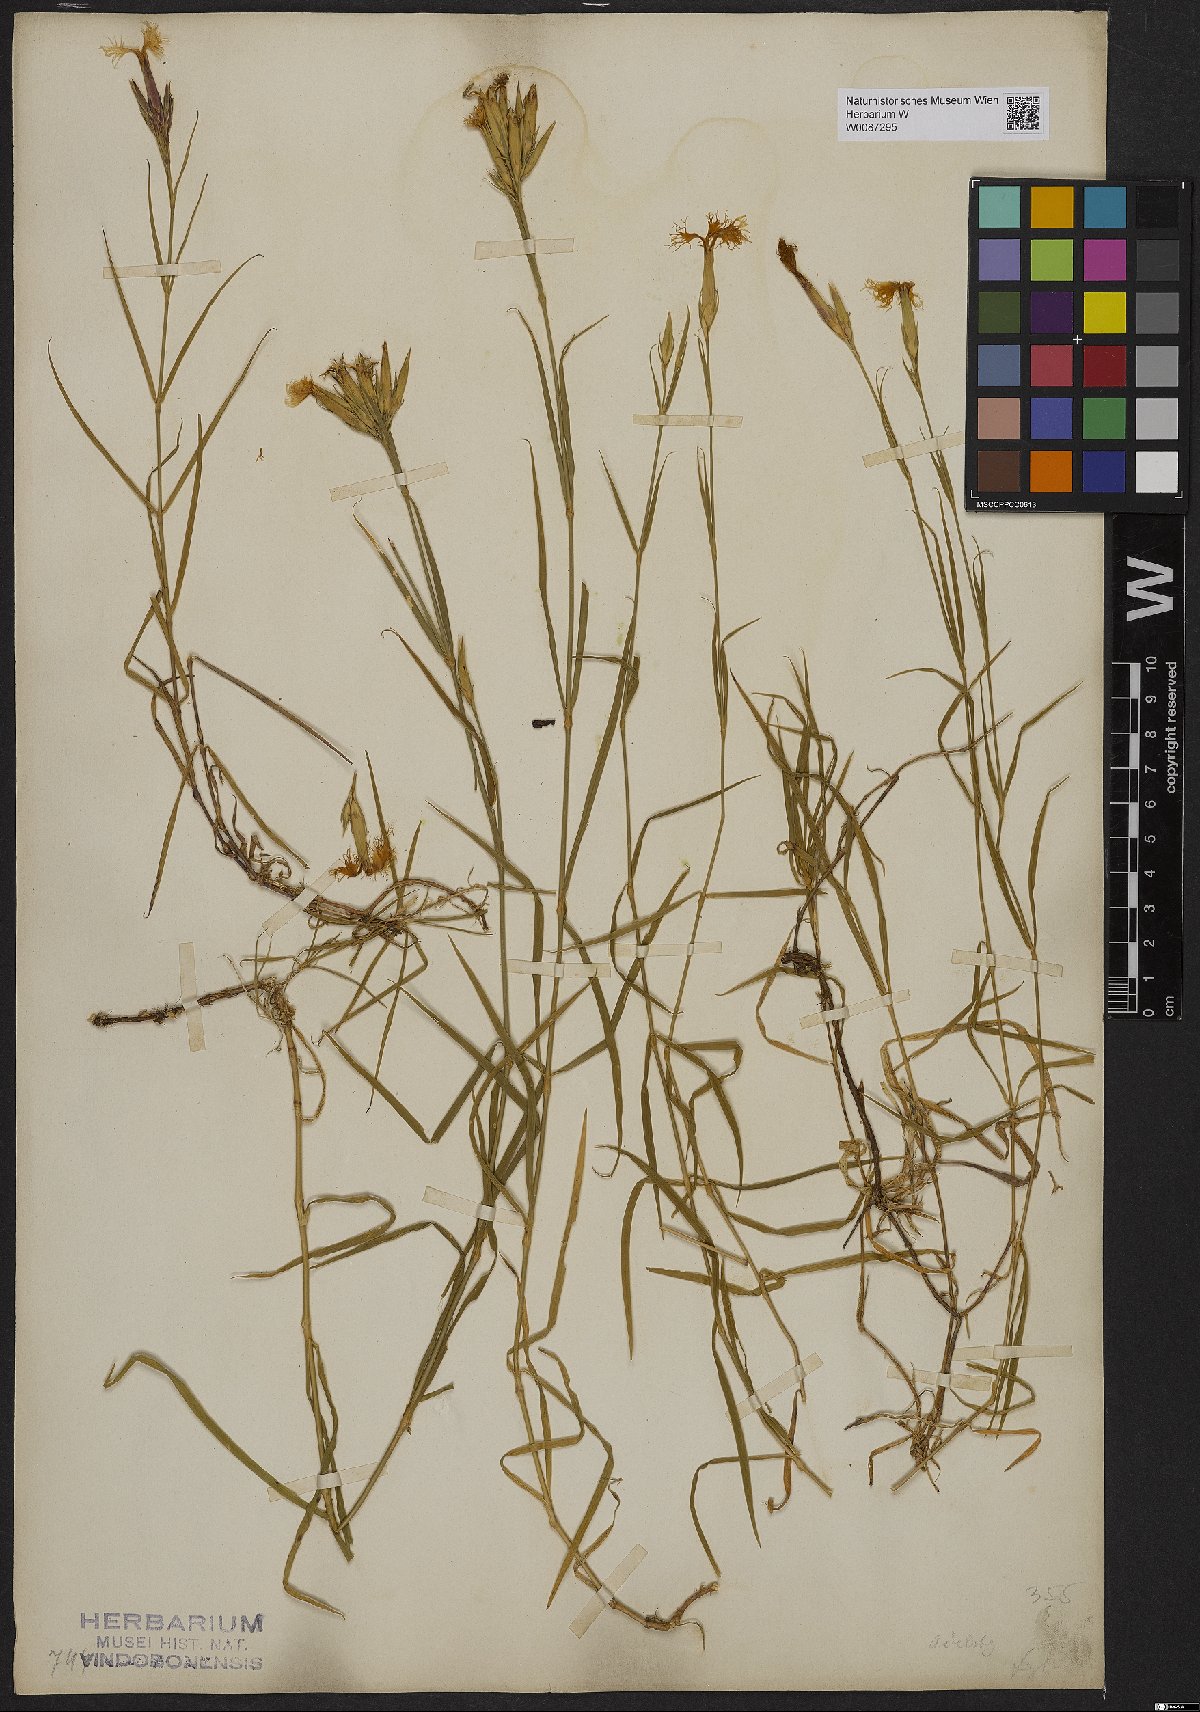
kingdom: Plantae
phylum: Tracheophyta
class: Magnoliopsida
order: Caryophyllales
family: Caryophyllaceae
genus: Dianthus
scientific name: Dianthus
